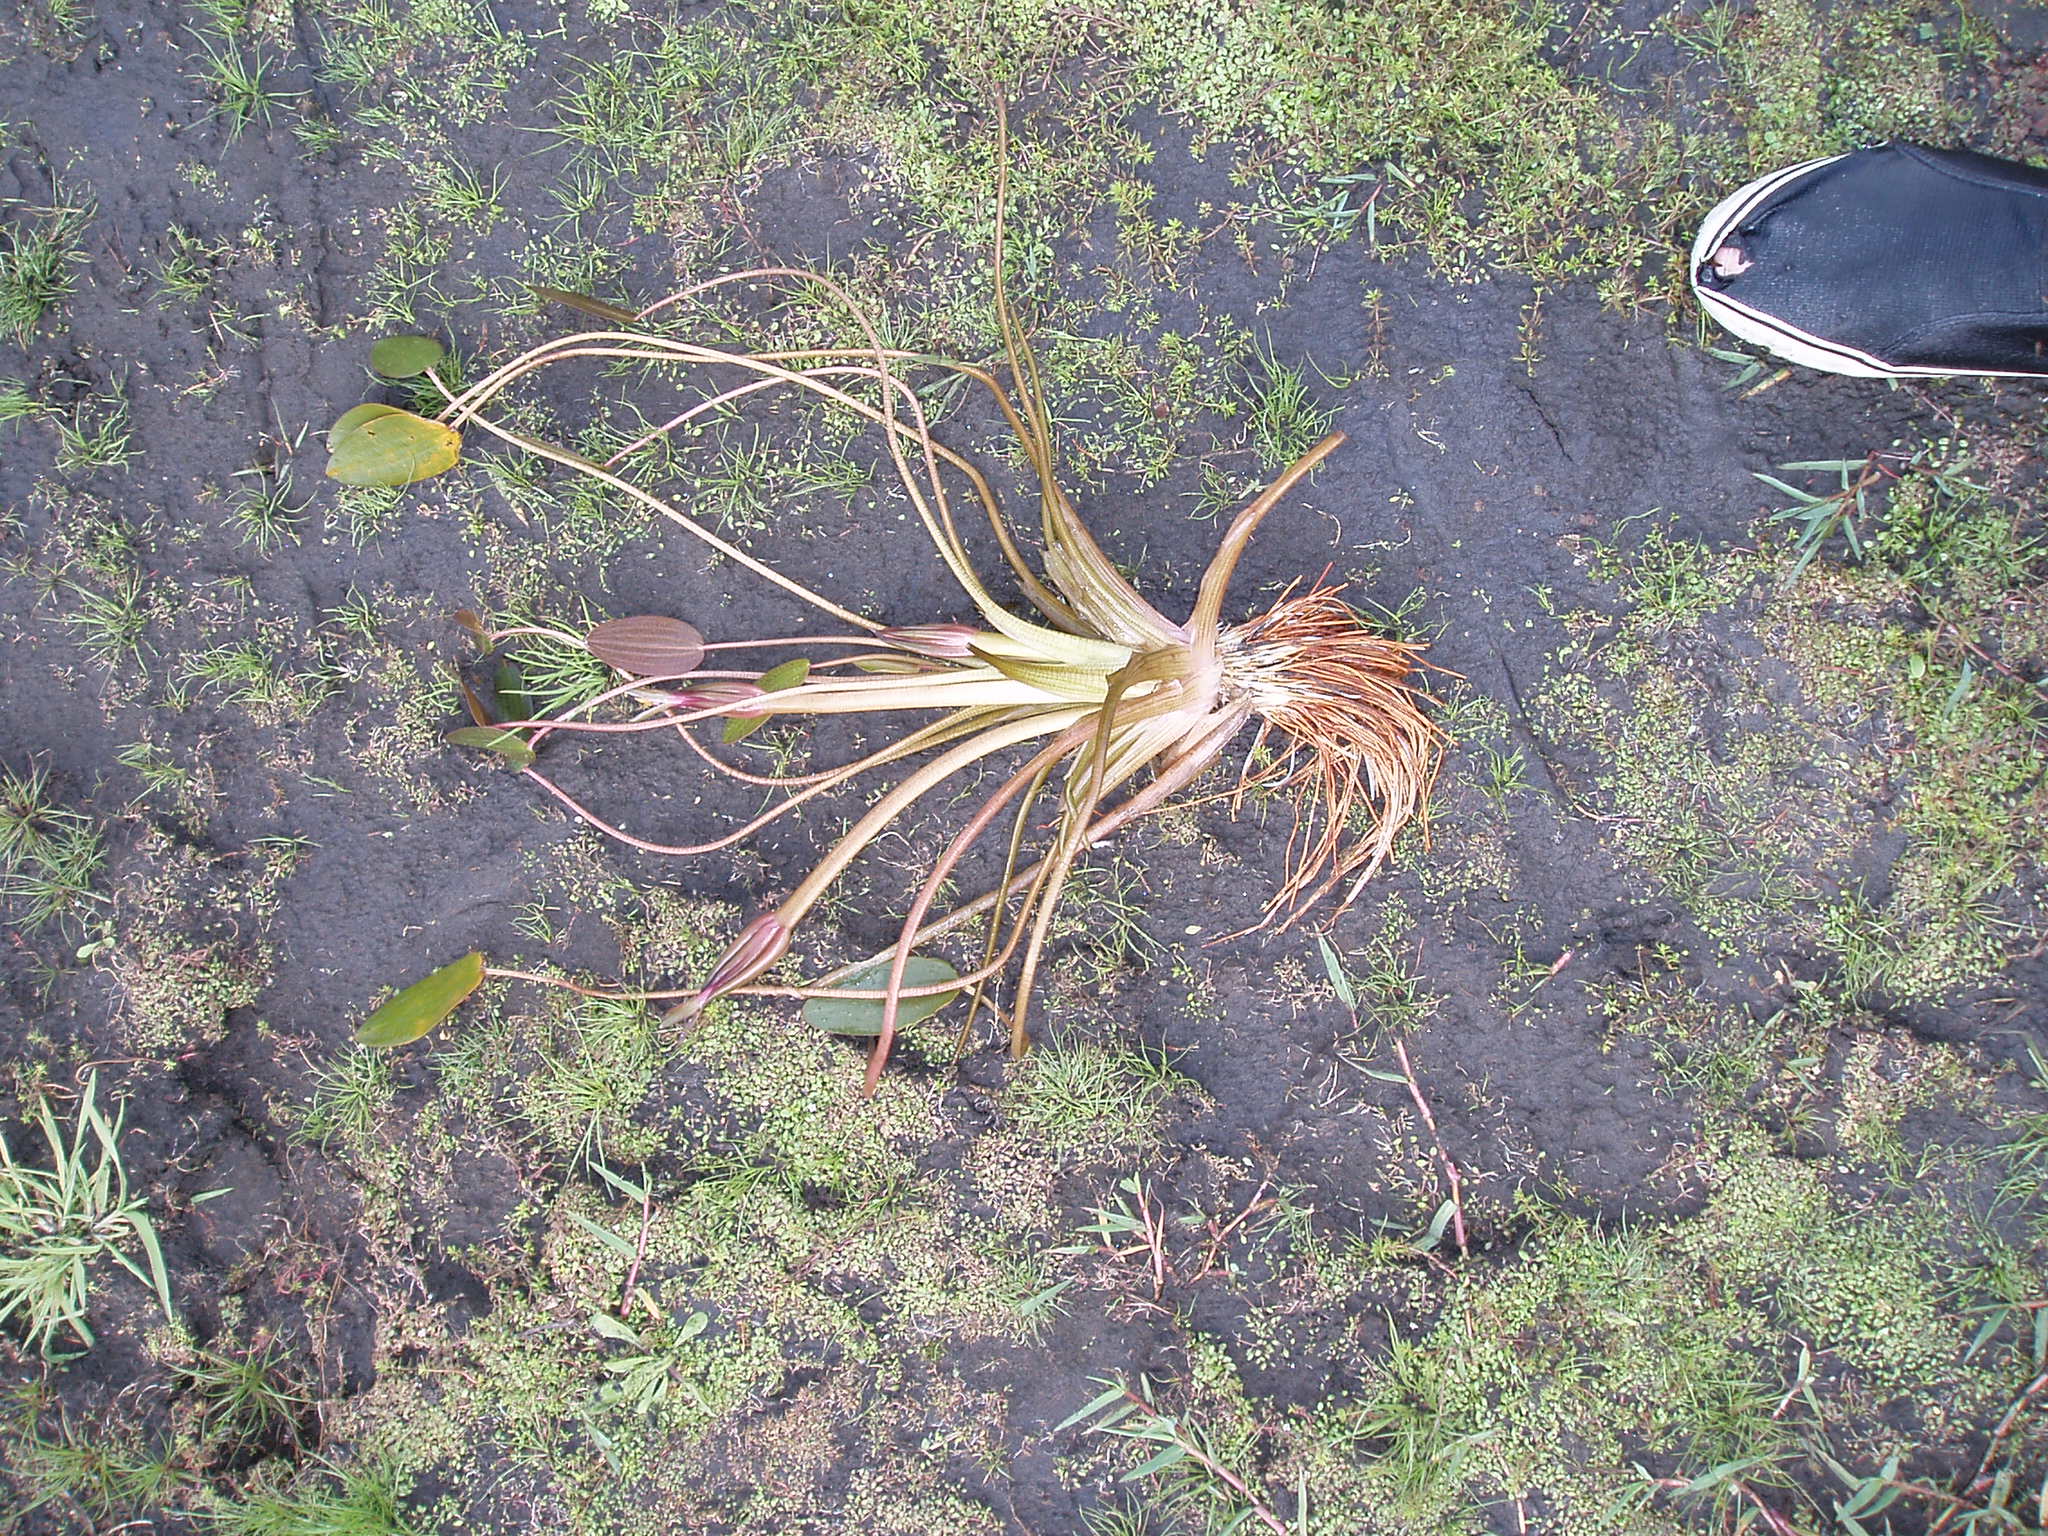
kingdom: Plantae
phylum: Tracheophyta
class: Liliopsida
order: Alismatales
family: Hydrocharitaceae
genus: Ottelia
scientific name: Ottelia ovalifolia
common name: Swamp-lily
